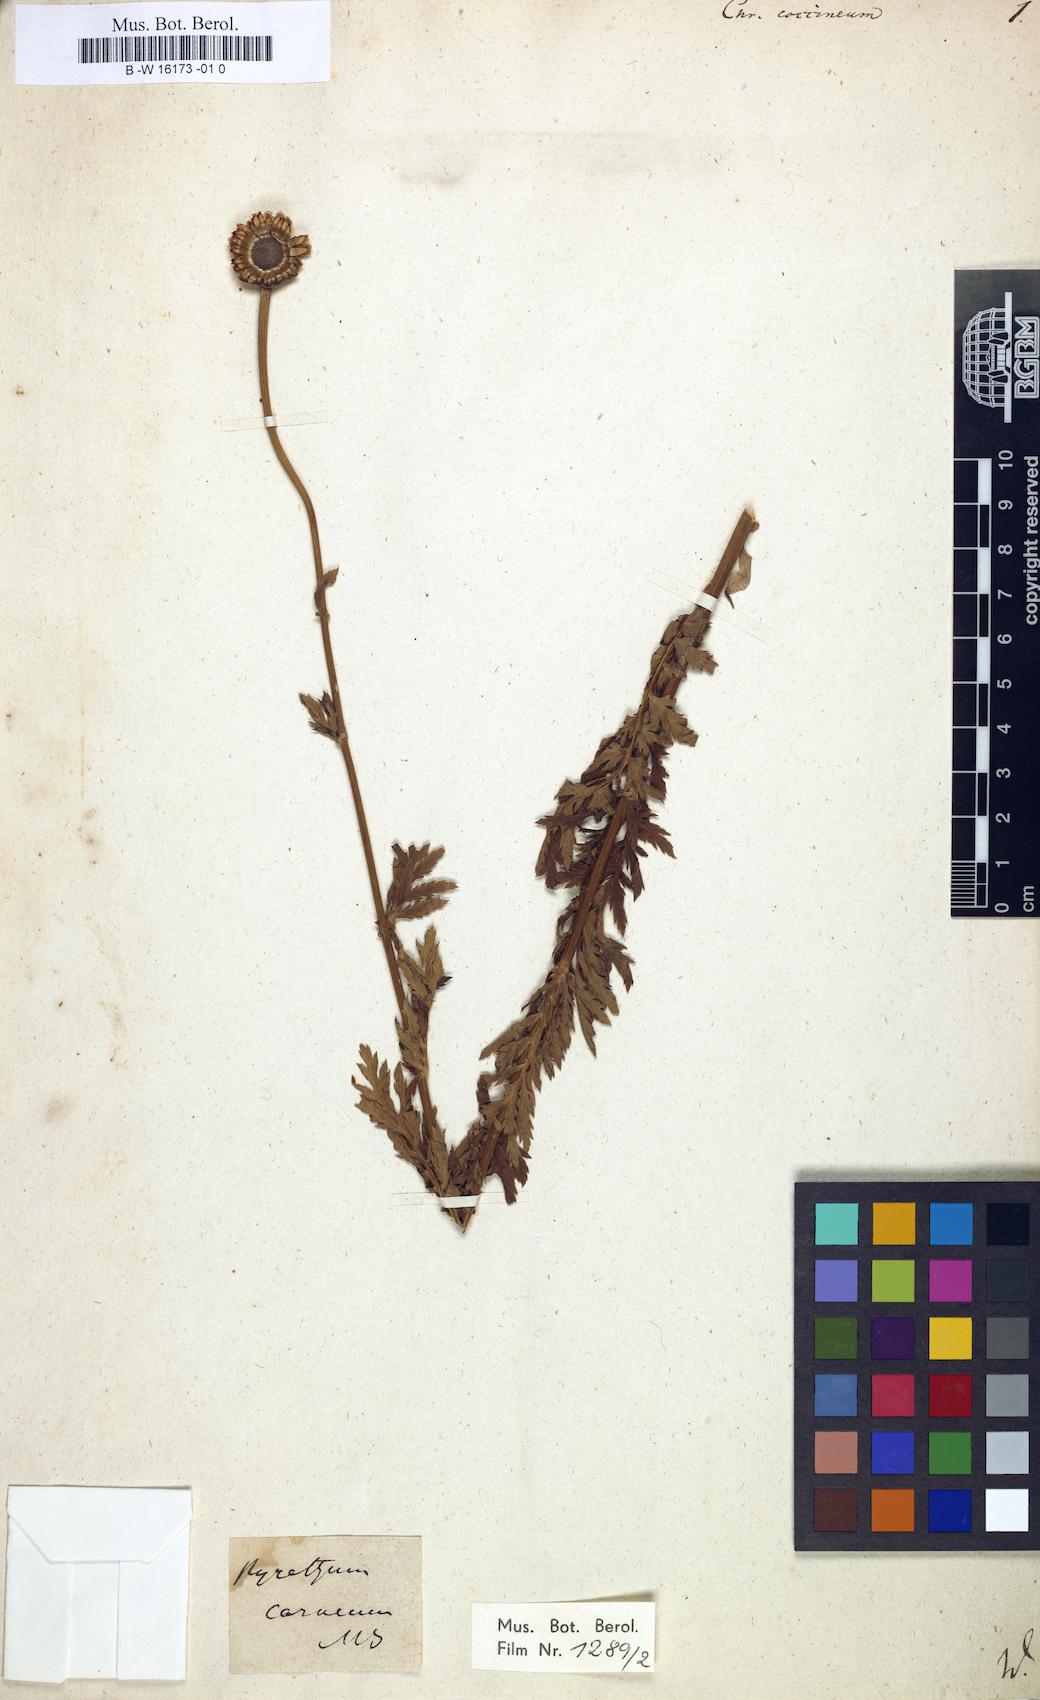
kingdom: Plantae
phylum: Tracheophyta
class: Magnoliopsida
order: Asterales
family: Asteraceae
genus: Chrysanthemum
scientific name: Chrysanthemum coccineum
